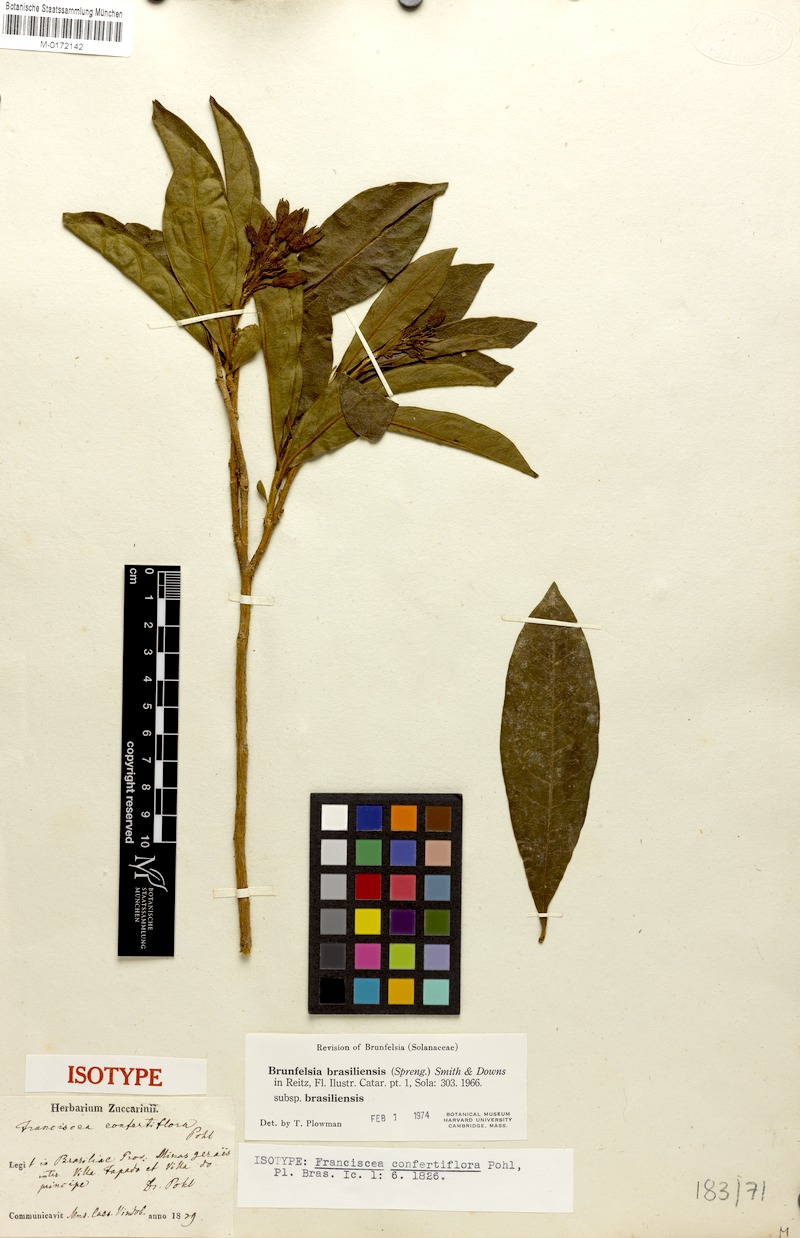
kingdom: Plantae
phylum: Tracheophyta
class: Magnoliopsida
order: Solanales
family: Solanaceae
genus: Brunfelsia
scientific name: Brunfelsia brasiliensis
